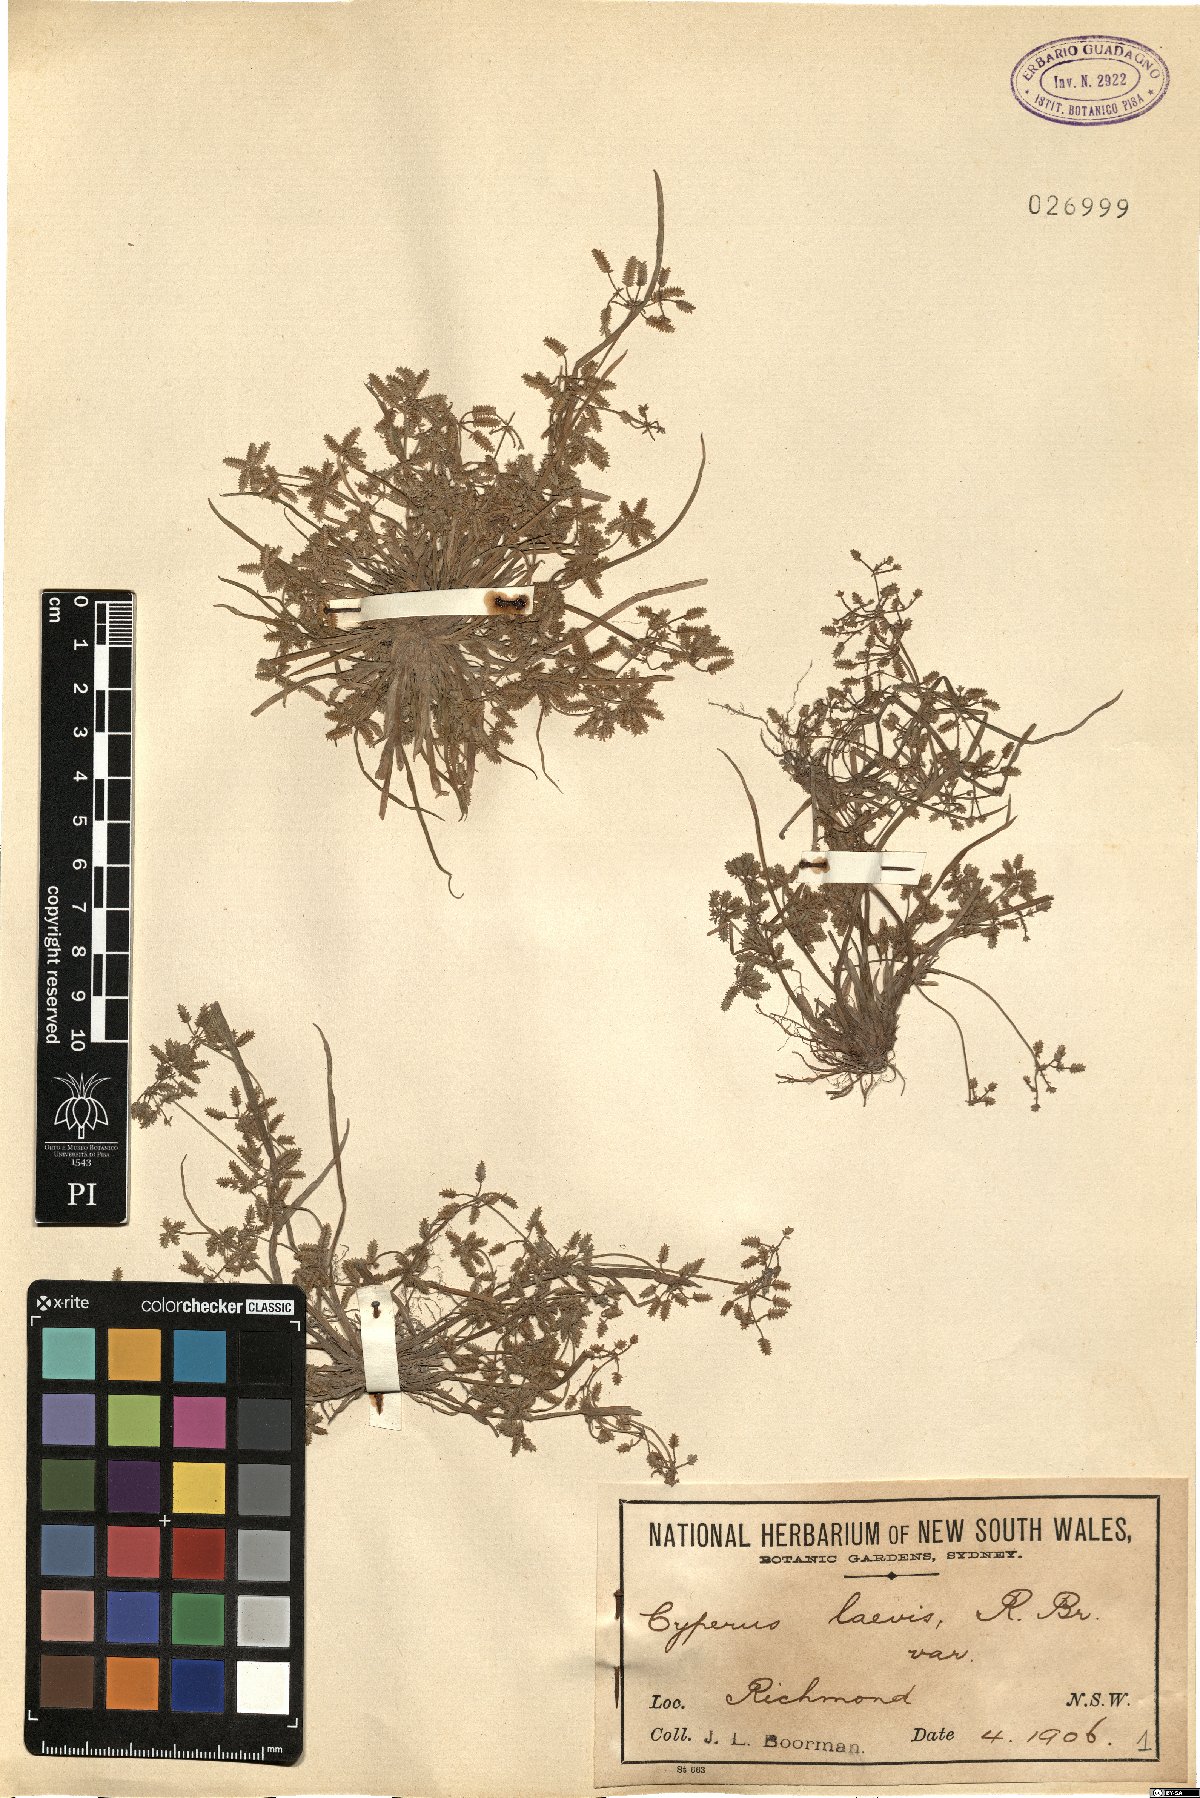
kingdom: Plantae
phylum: Tracheophyta
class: Liliopsida
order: Poales
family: Cyperaceae
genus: Cyperus
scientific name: Cyperus laevis
